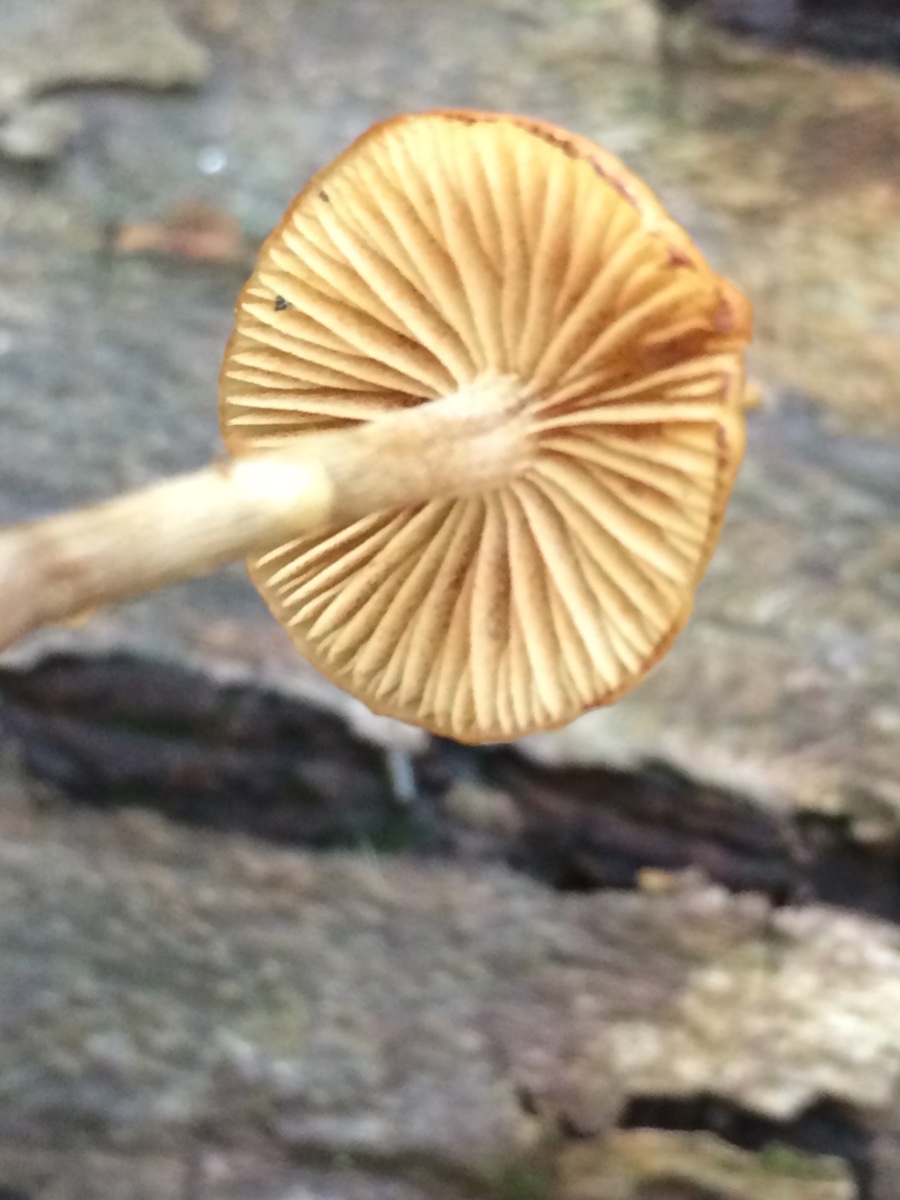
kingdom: Fungi
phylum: Basidiomycota
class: Agaricomycetes
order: Agaricales
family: Hymenogastraceae
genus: Galerina
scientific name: Galerina marginata
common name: randbæltet hjelmhat
